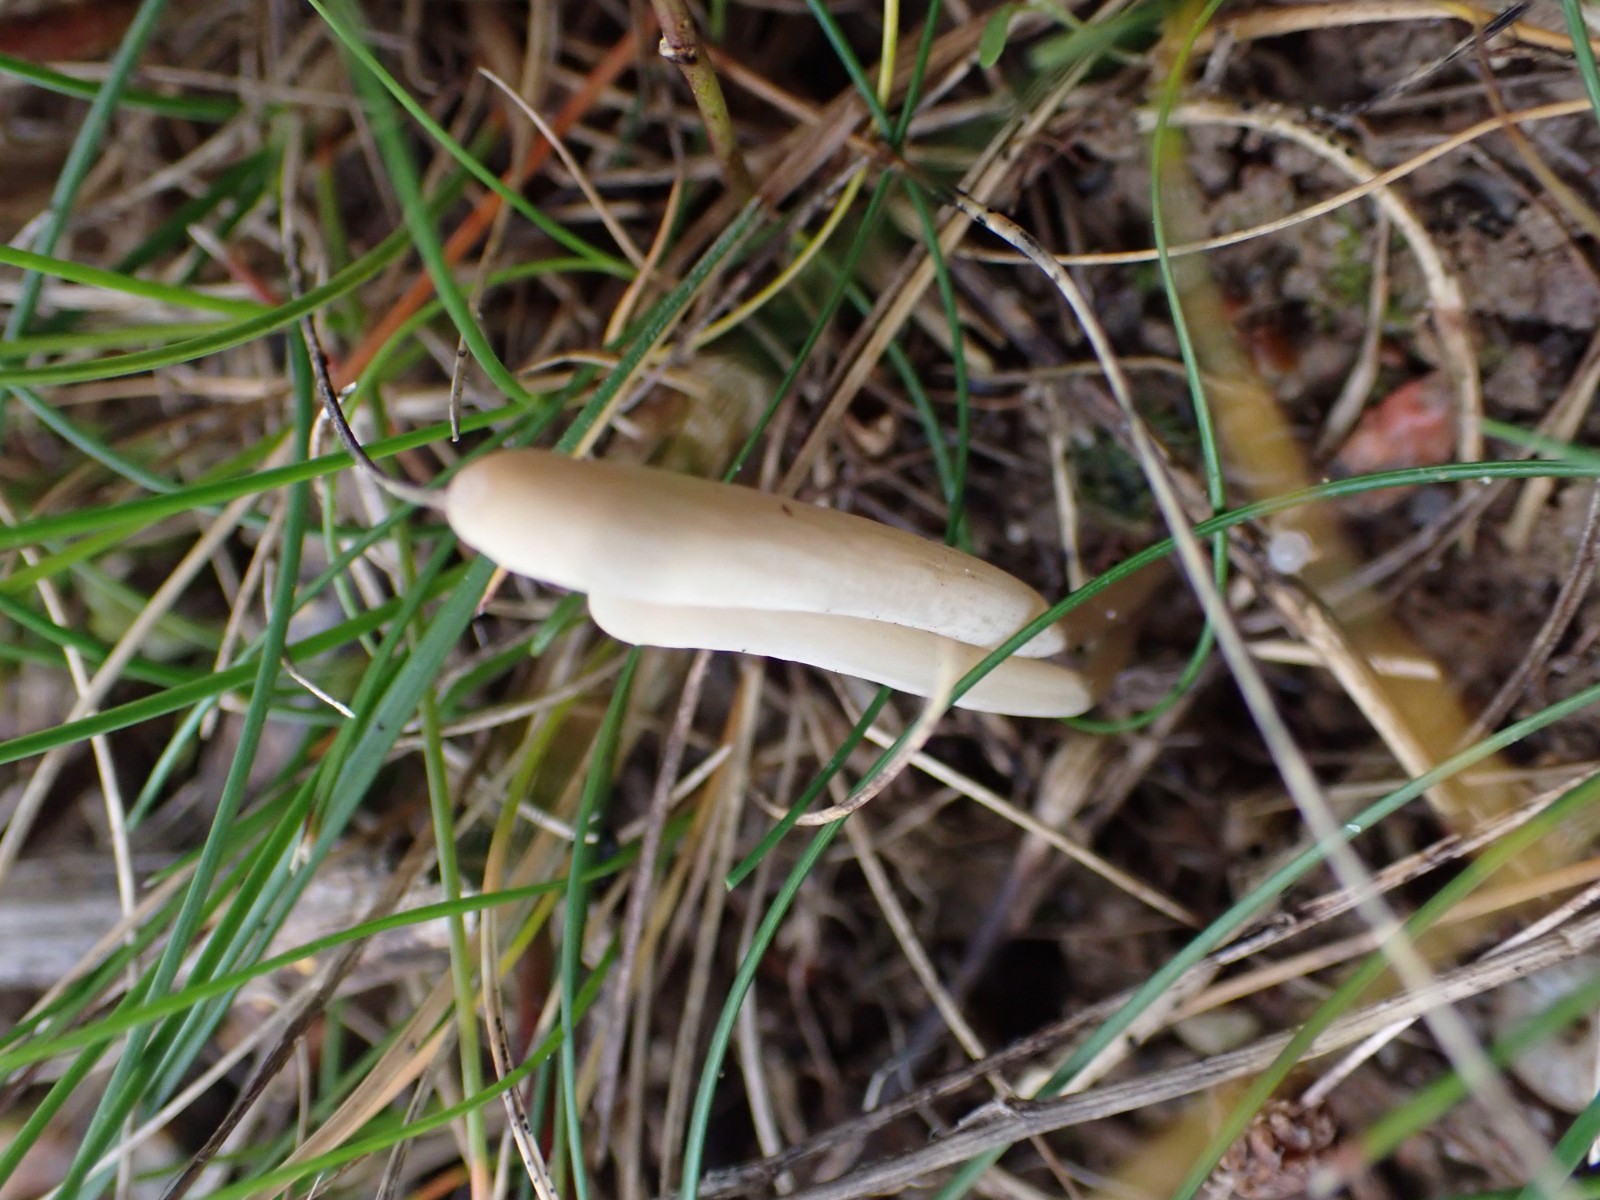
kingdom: Fungi
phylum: Basidiomycota
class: Agaricomycetes
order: Agaricales
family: Clavariaceae
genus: Clavaria
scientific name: Clavaria tenuipes
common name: isabellafarvet køllesvamp
